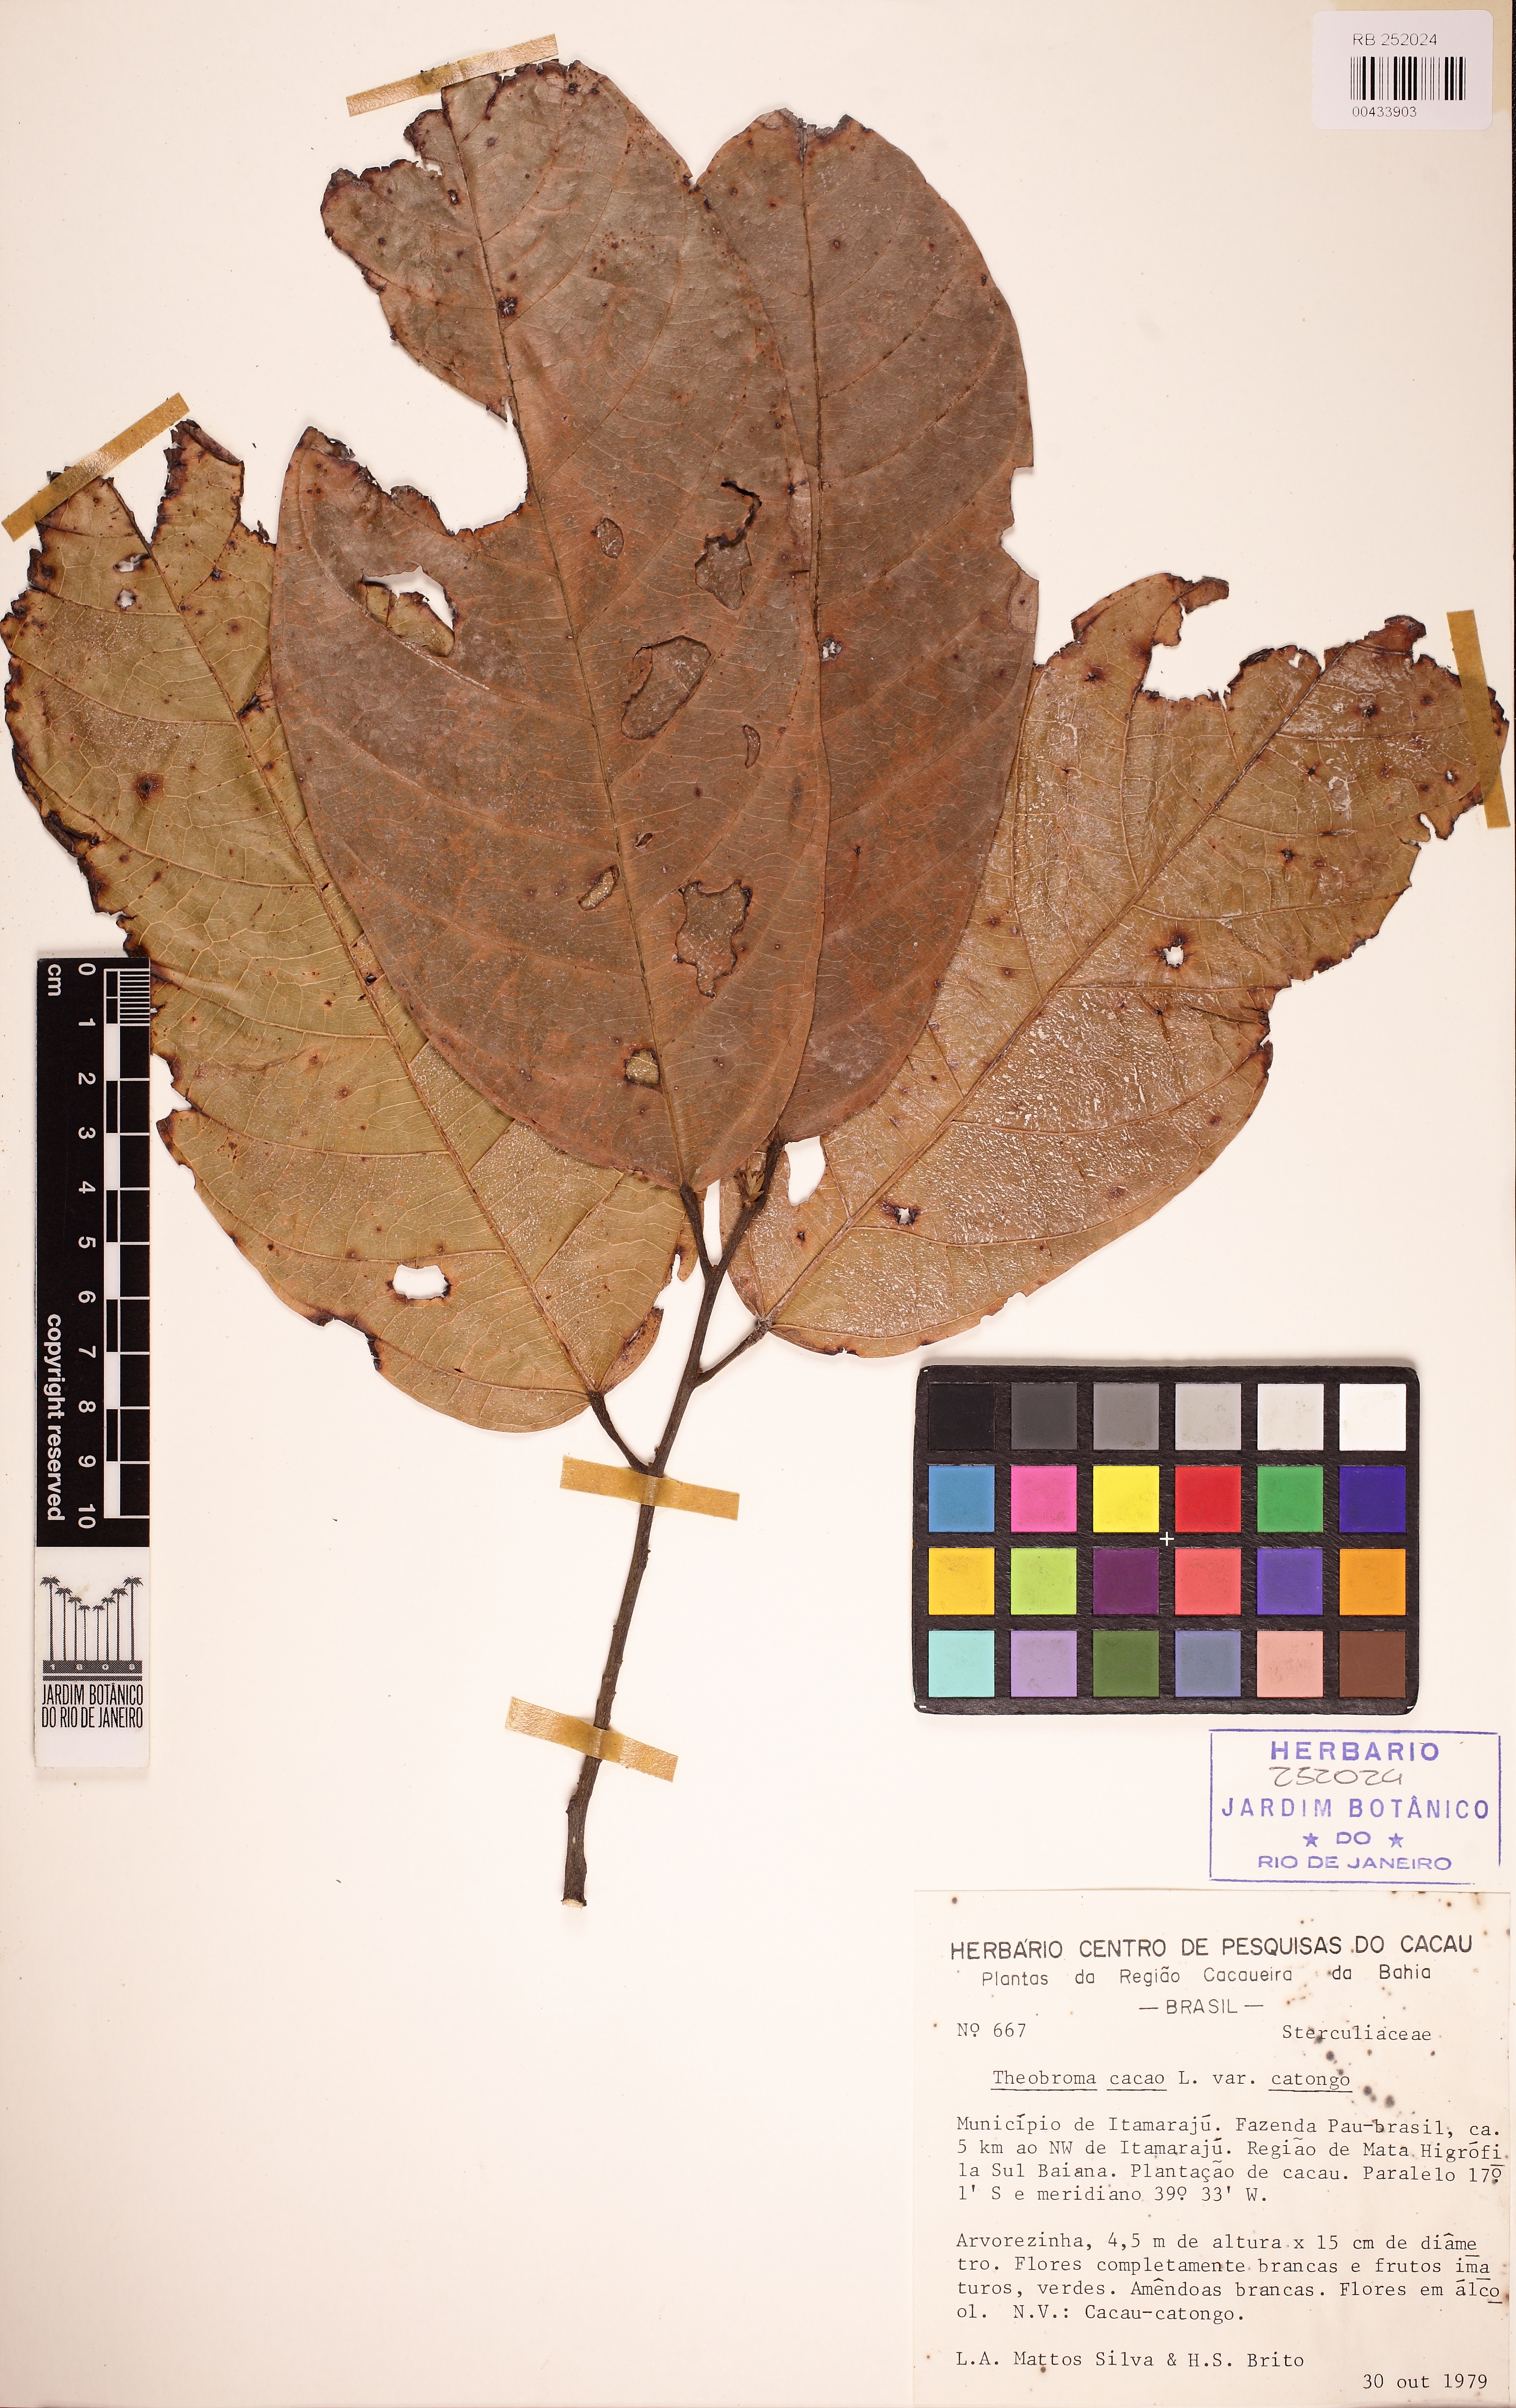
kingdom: Plantae
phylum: Tracheophyta
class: Magnoliopsida
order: Malvales
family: Malvaceae
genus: Theobroma
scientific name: Theobroma cacao
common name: Cocoa
